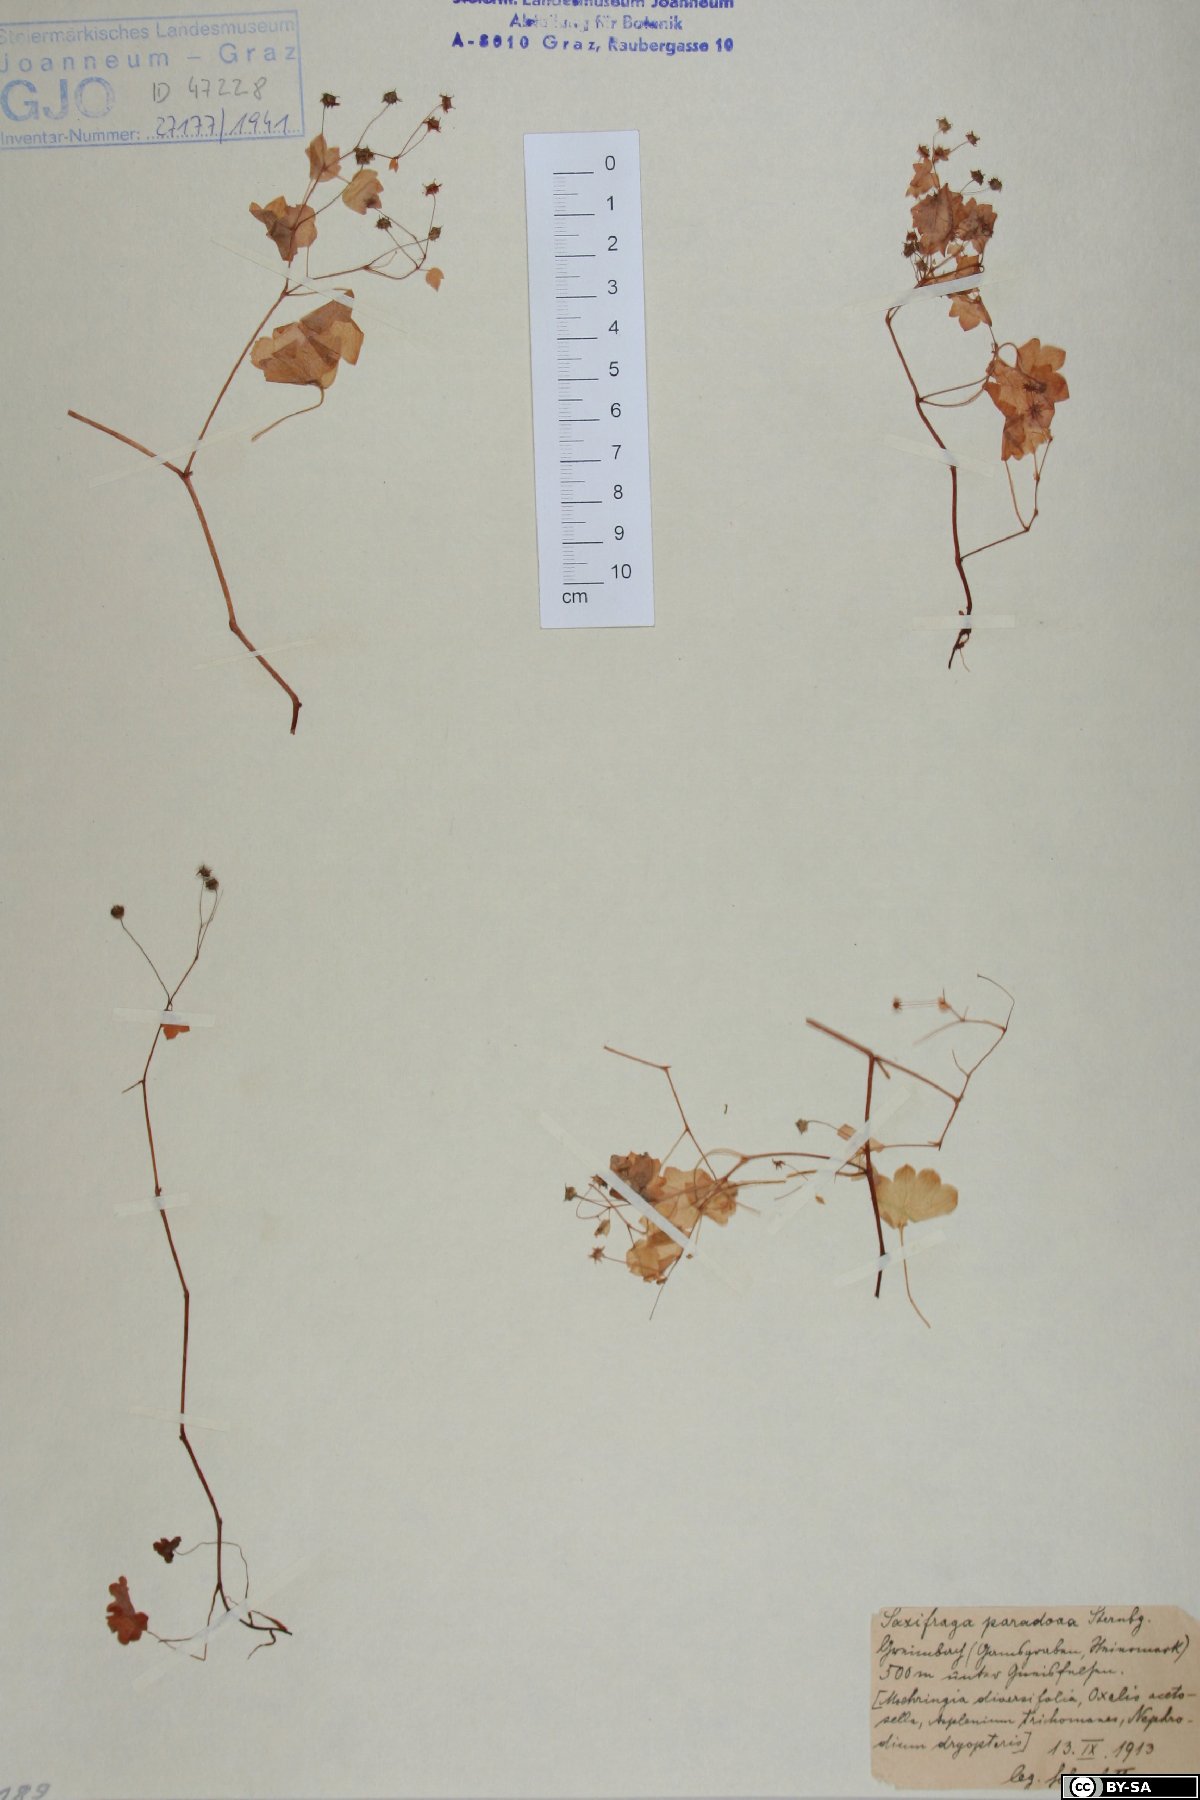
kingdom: Plantae
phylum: Tracheophyta
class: Magnoliopsida
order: Saxifragales
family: Saxifragaceae
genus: Saxifraga
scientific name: Saxifraga paradoxa
